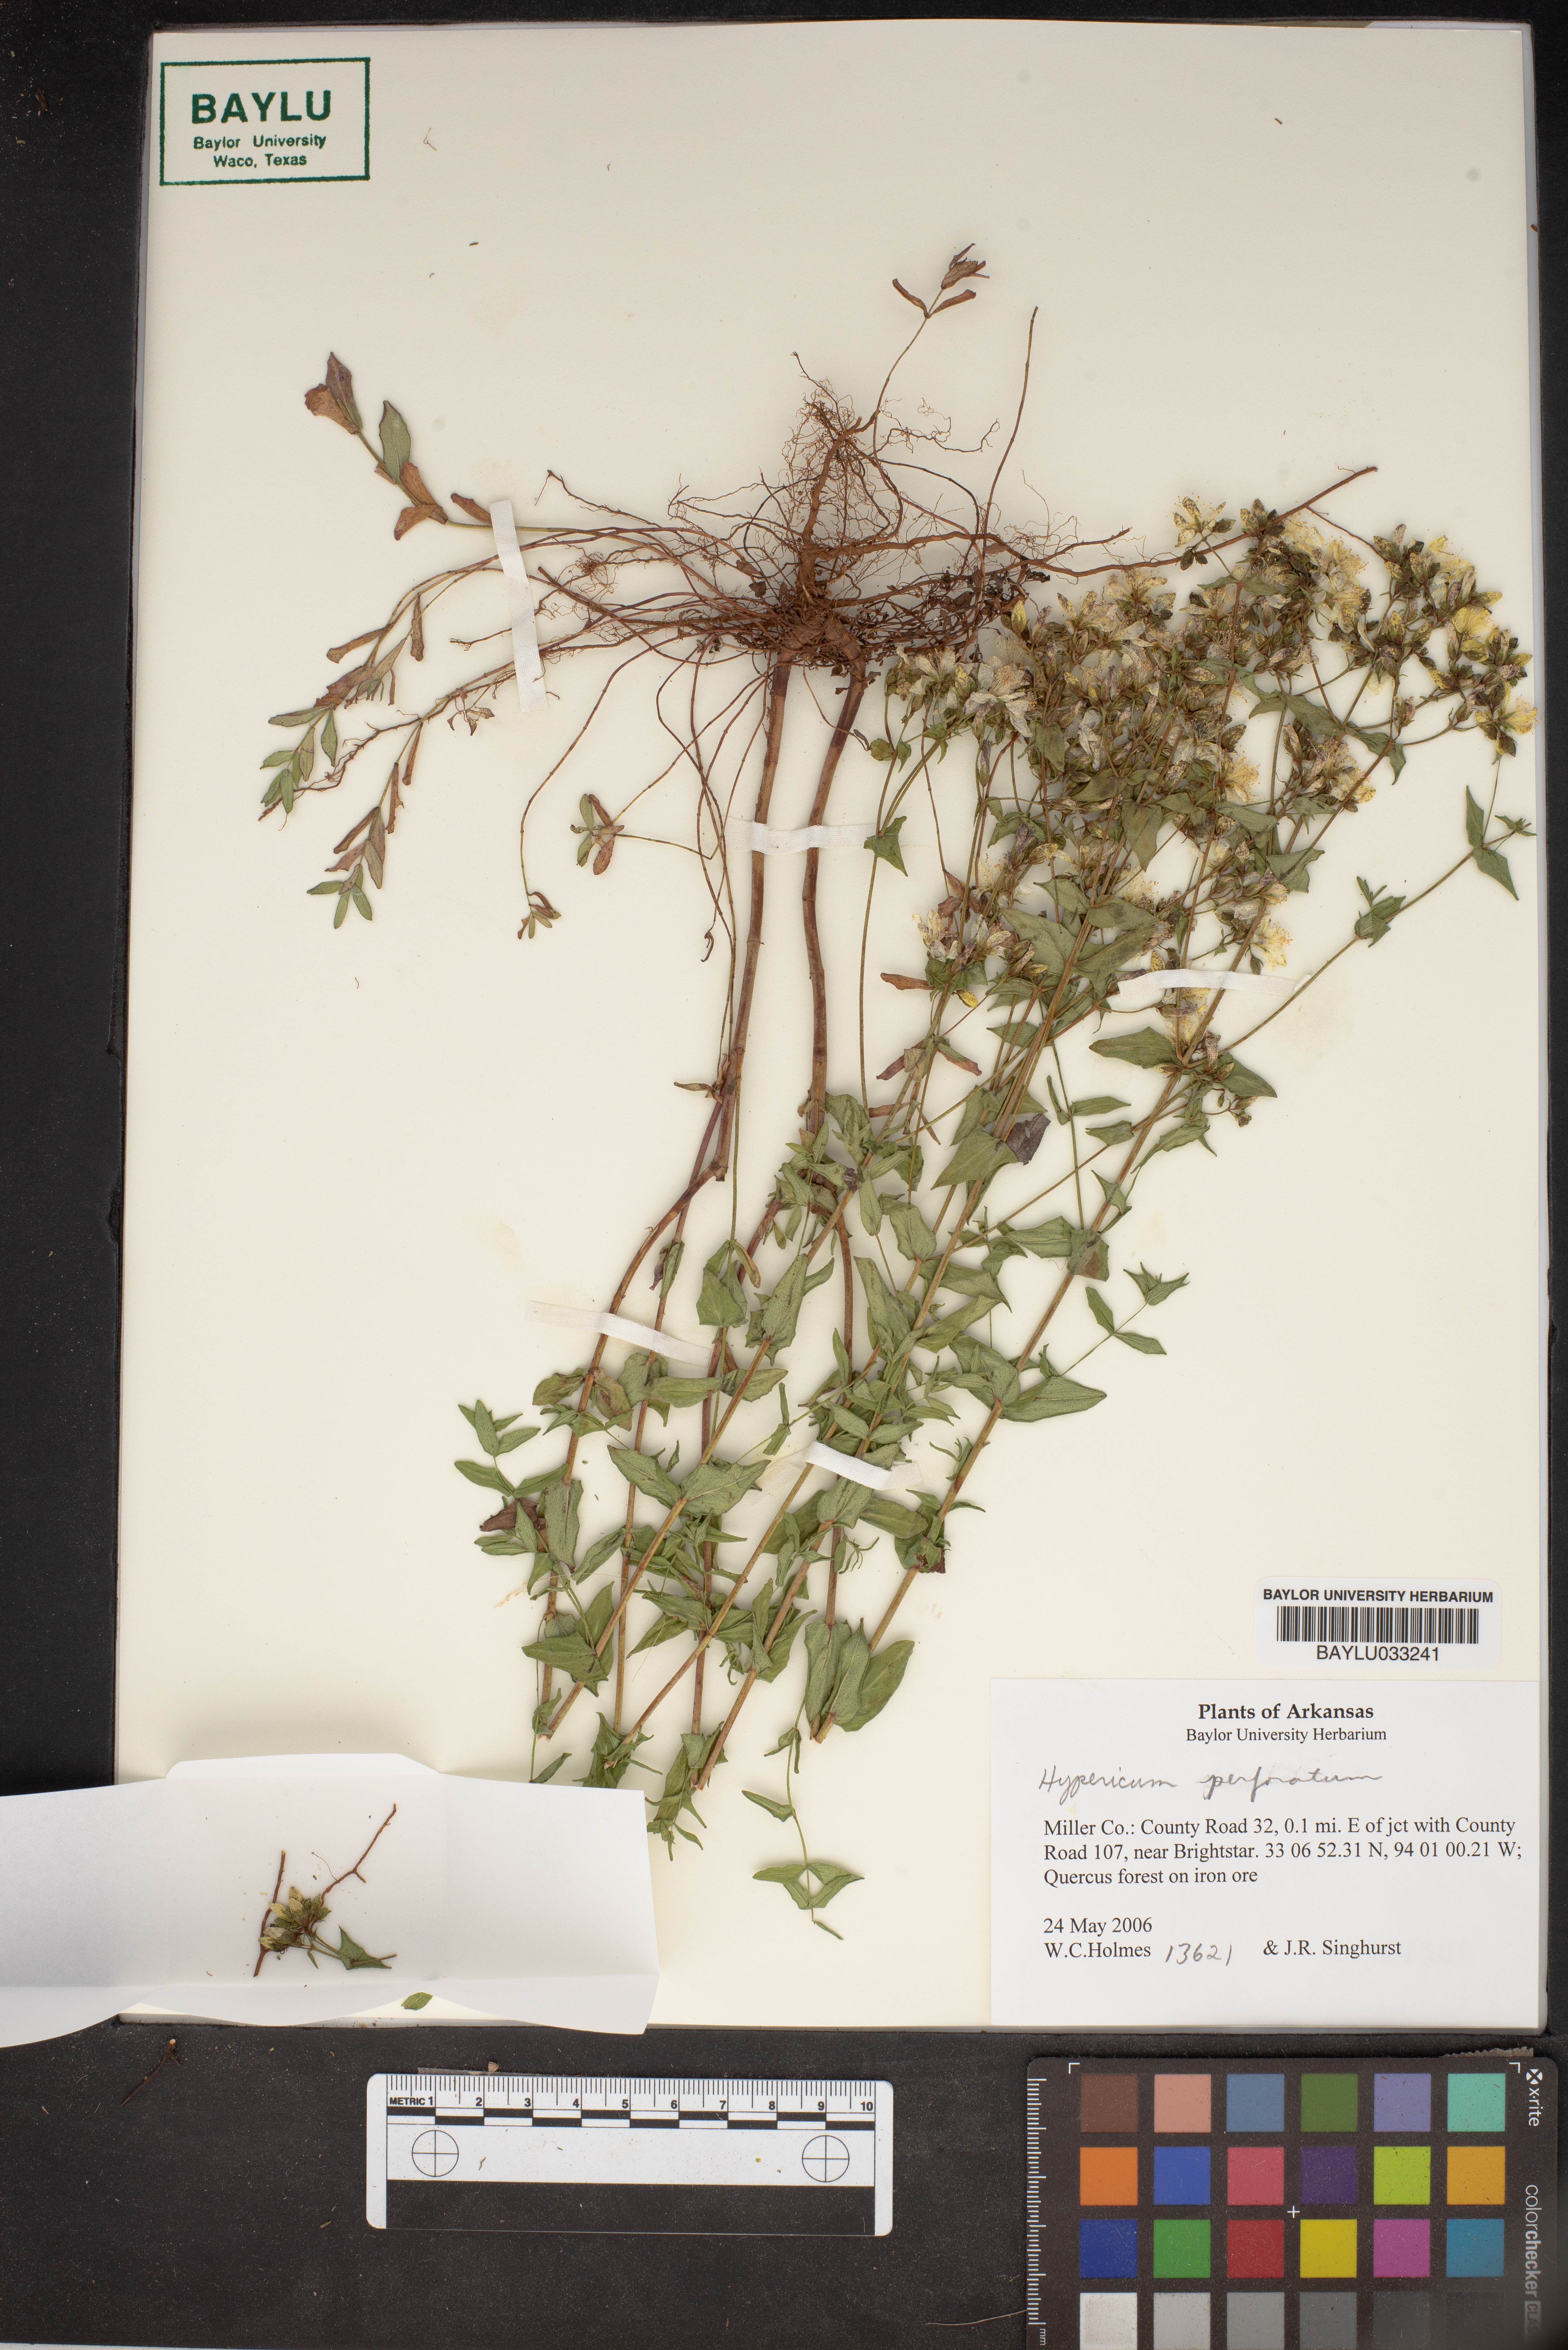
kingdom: Plantae
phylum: Tracheophyta
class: Magnoliopsida
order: Malpighiales
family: Hypericaceae
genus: Hypericum
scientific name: Hypericum perforatum
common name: Common st. johnswort
